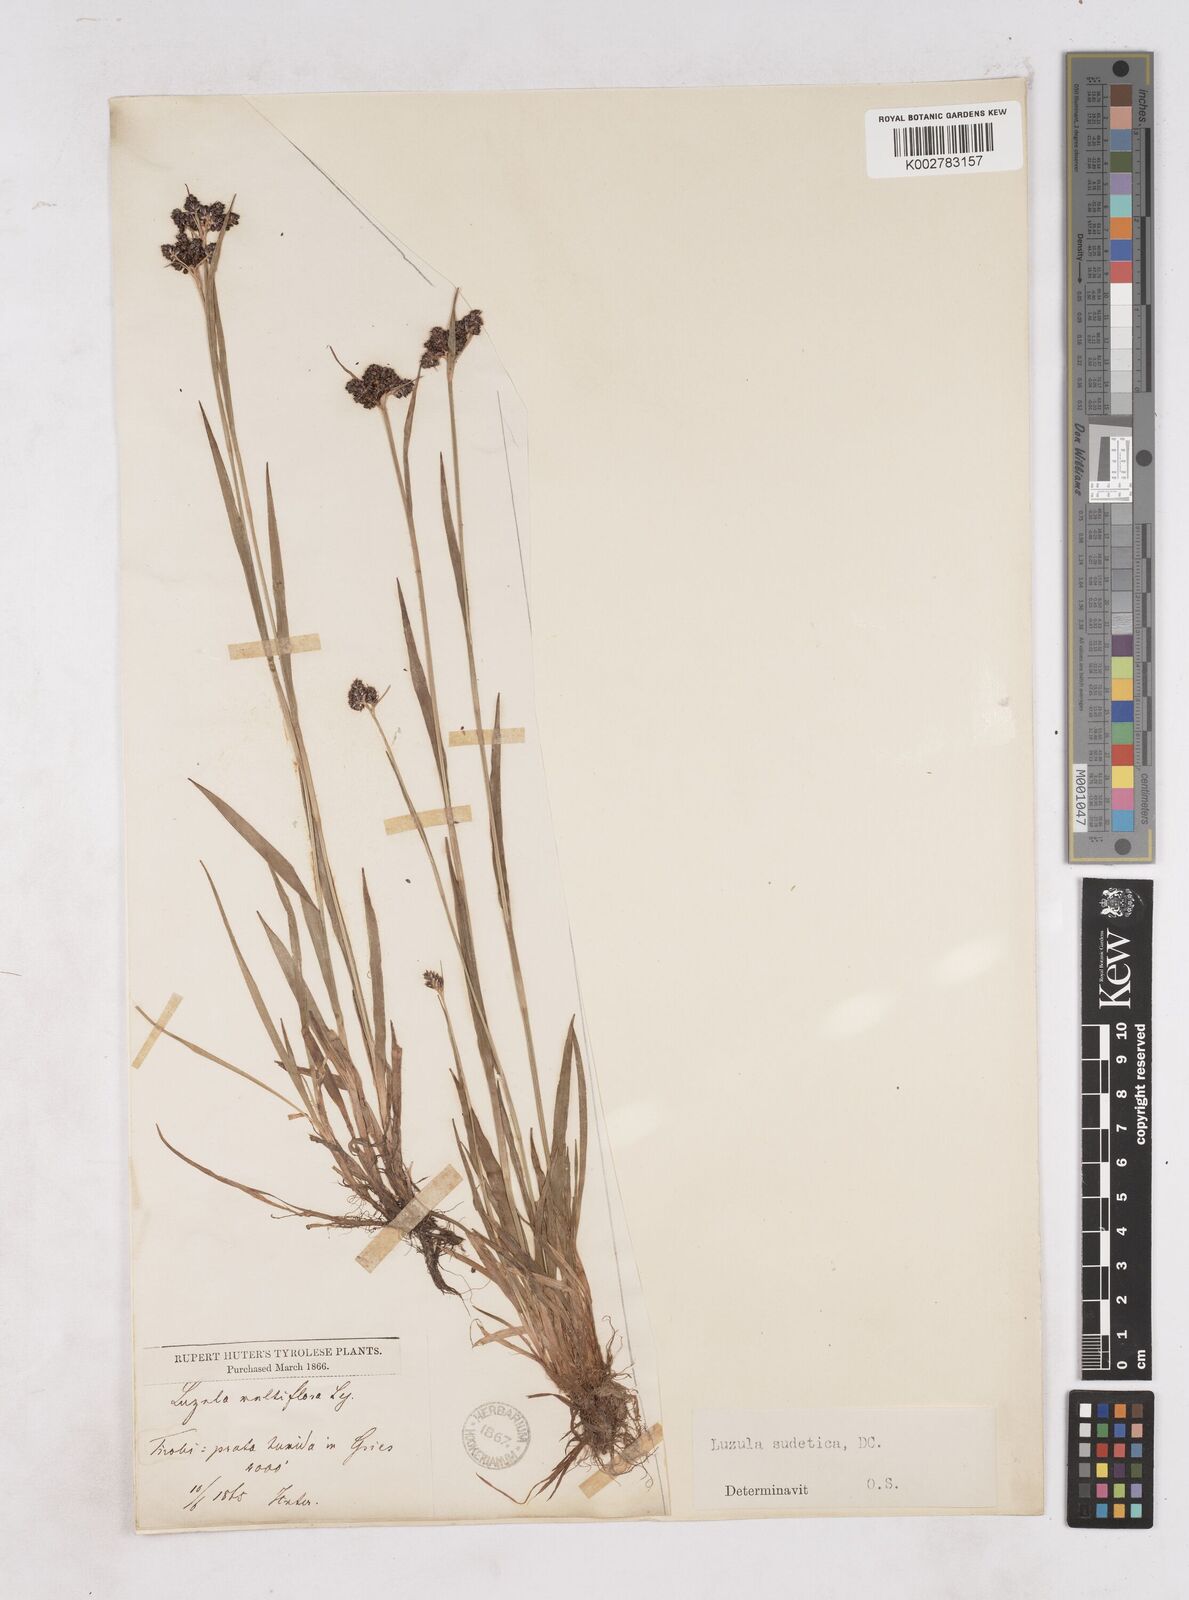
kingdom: Plantae
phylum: Tracheophyta
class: Liliopsida
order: Poales
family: Juncaceae
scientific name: Juncaceae
